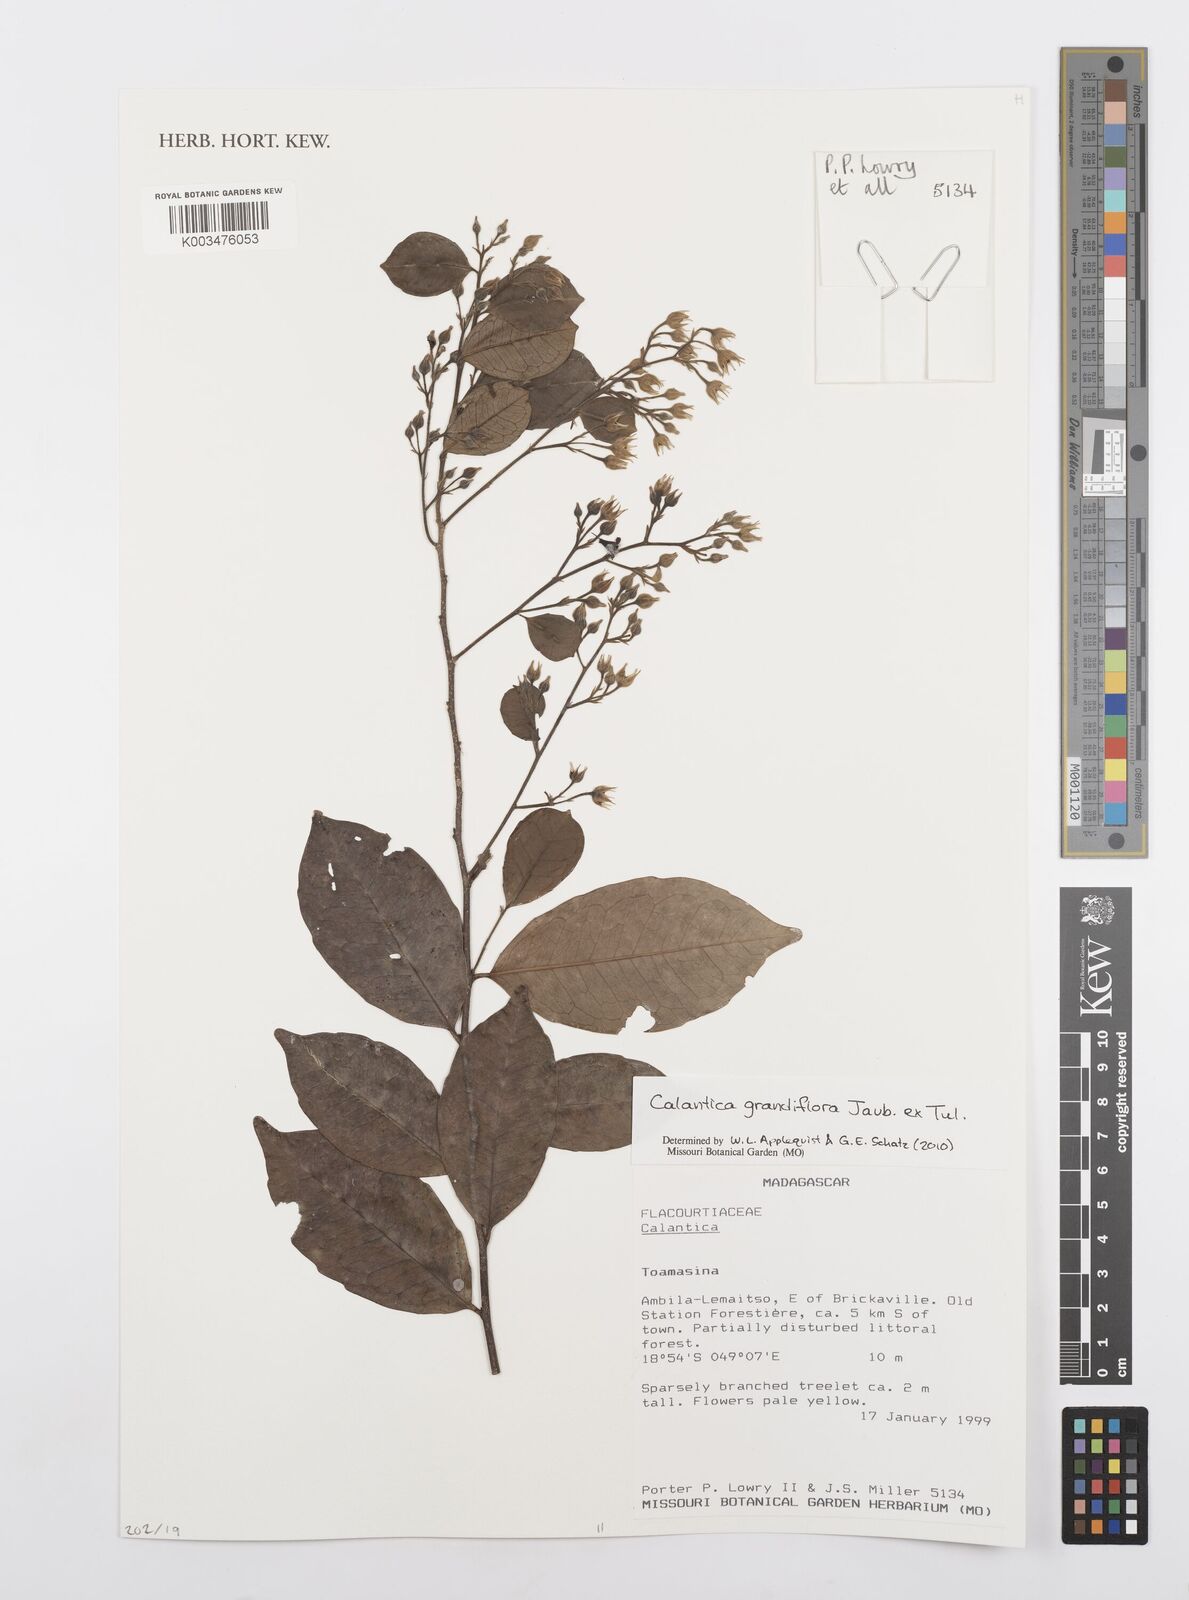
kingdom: Plantae
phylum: Tracheophyta
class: Magnoliopsida
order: Malpighiales
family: Salicaceae
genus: Calantica
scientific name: Calantica grandiflora
